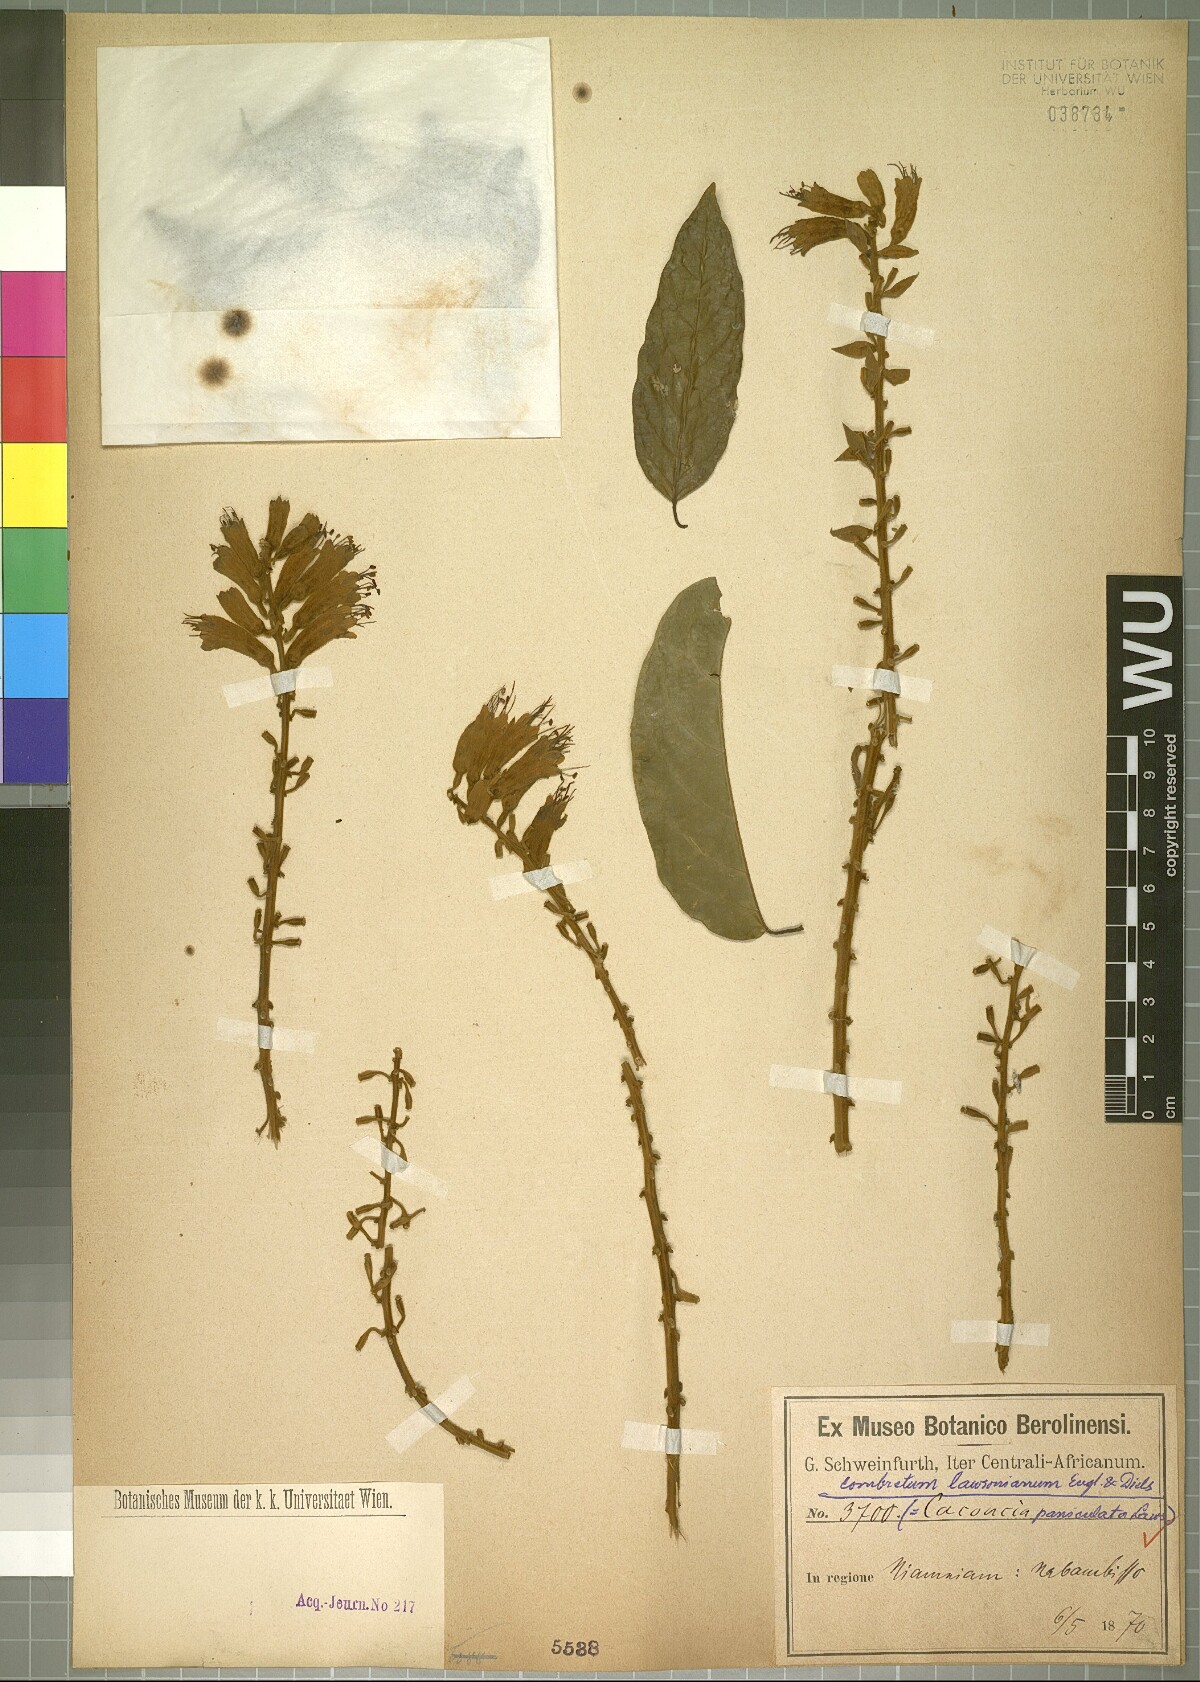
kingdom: Plantae
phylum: Tracheophyta
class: Magnoliopsida
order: Myrtales
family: Combretaceae
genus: Combretum
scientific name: Combretum platypterum
